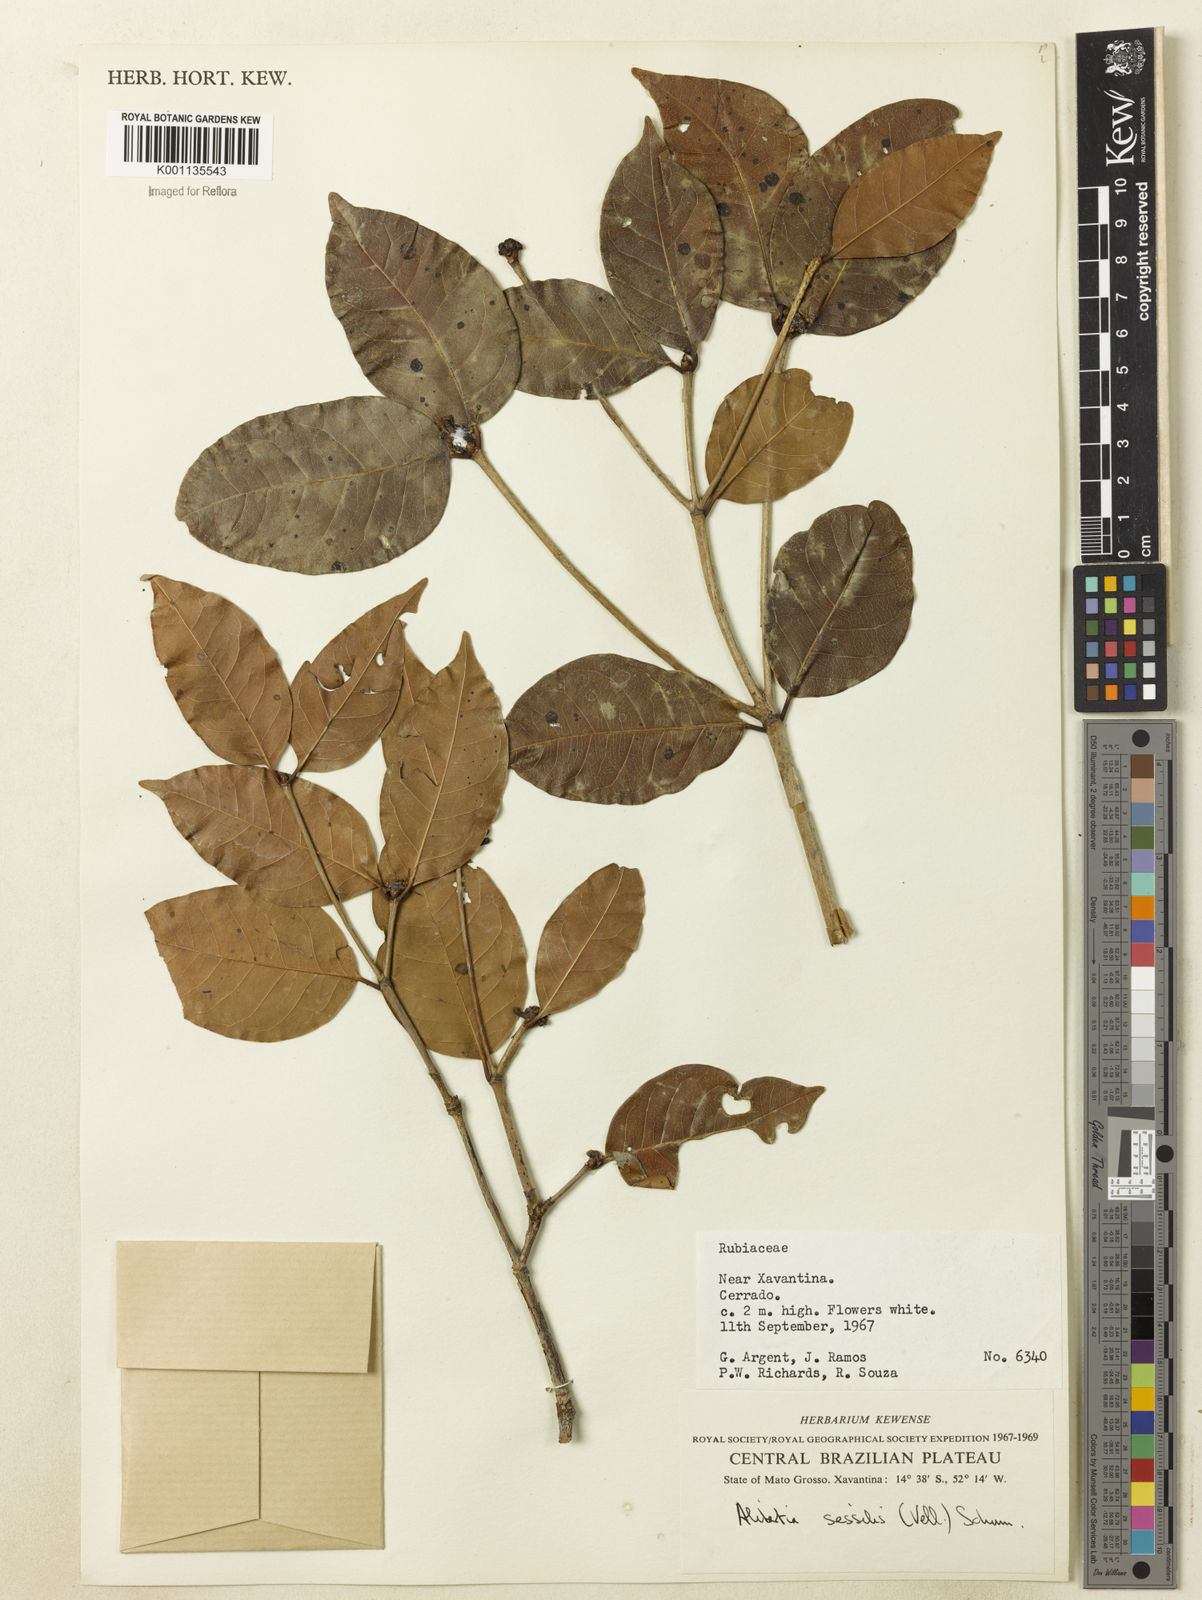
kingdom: Plantae
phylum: Tracheophyta
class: Magnoliopsida
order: Gentianales
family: Rubiaceae
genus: Cordiera
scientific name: Cordiera sessilis
